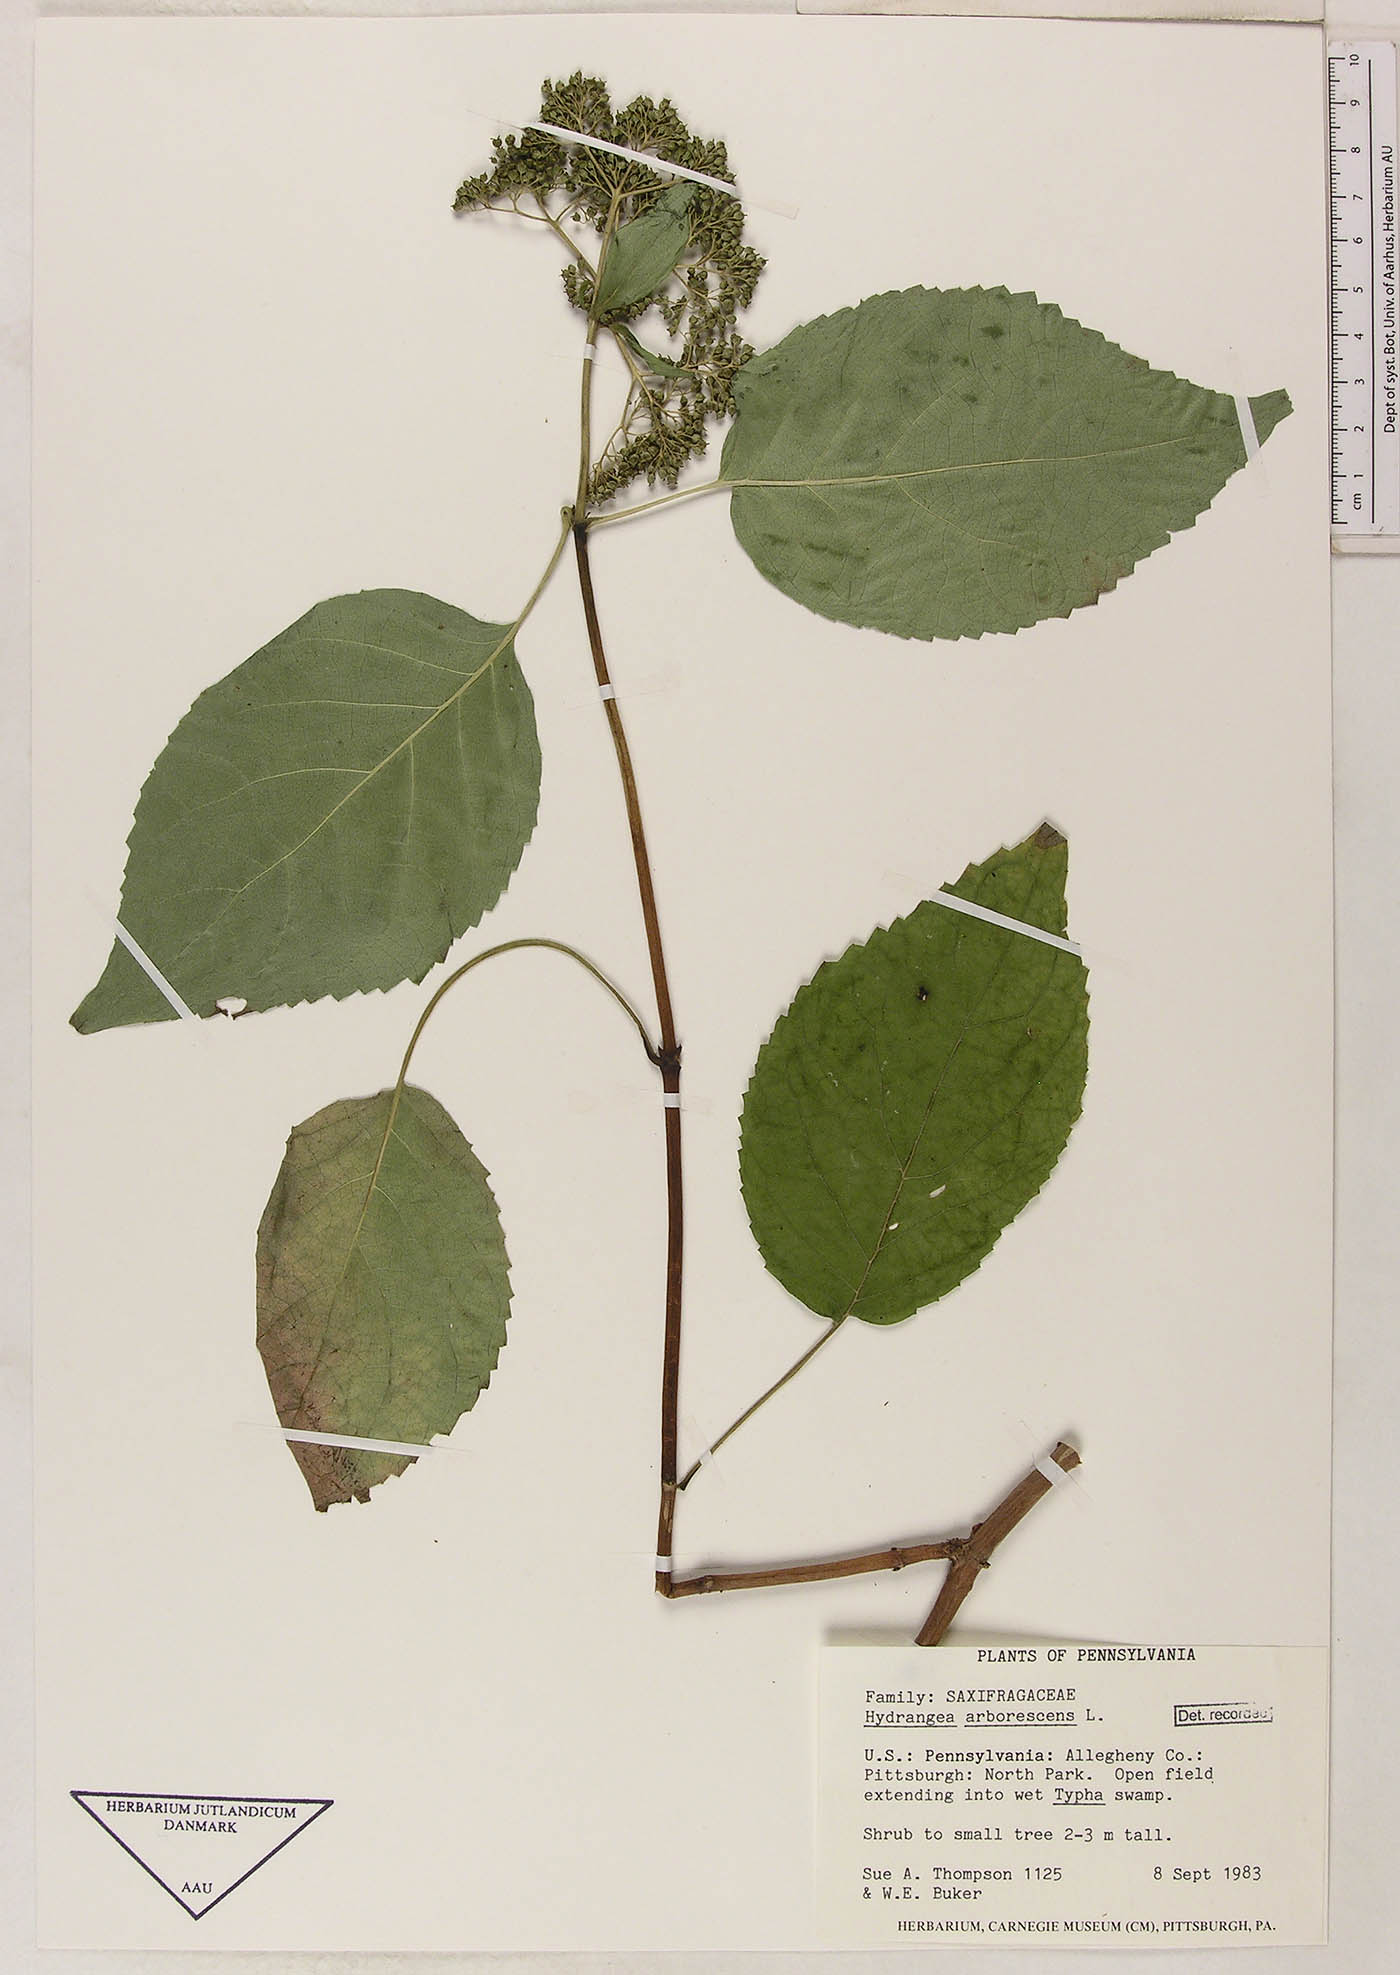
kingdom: Plantae
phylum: Tracheophyta
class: Magnoliopsida
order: Cornales
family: Hydrangeaceae
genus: Hydrangea
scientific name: Hydrangea arborescens
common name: Sevenbark
